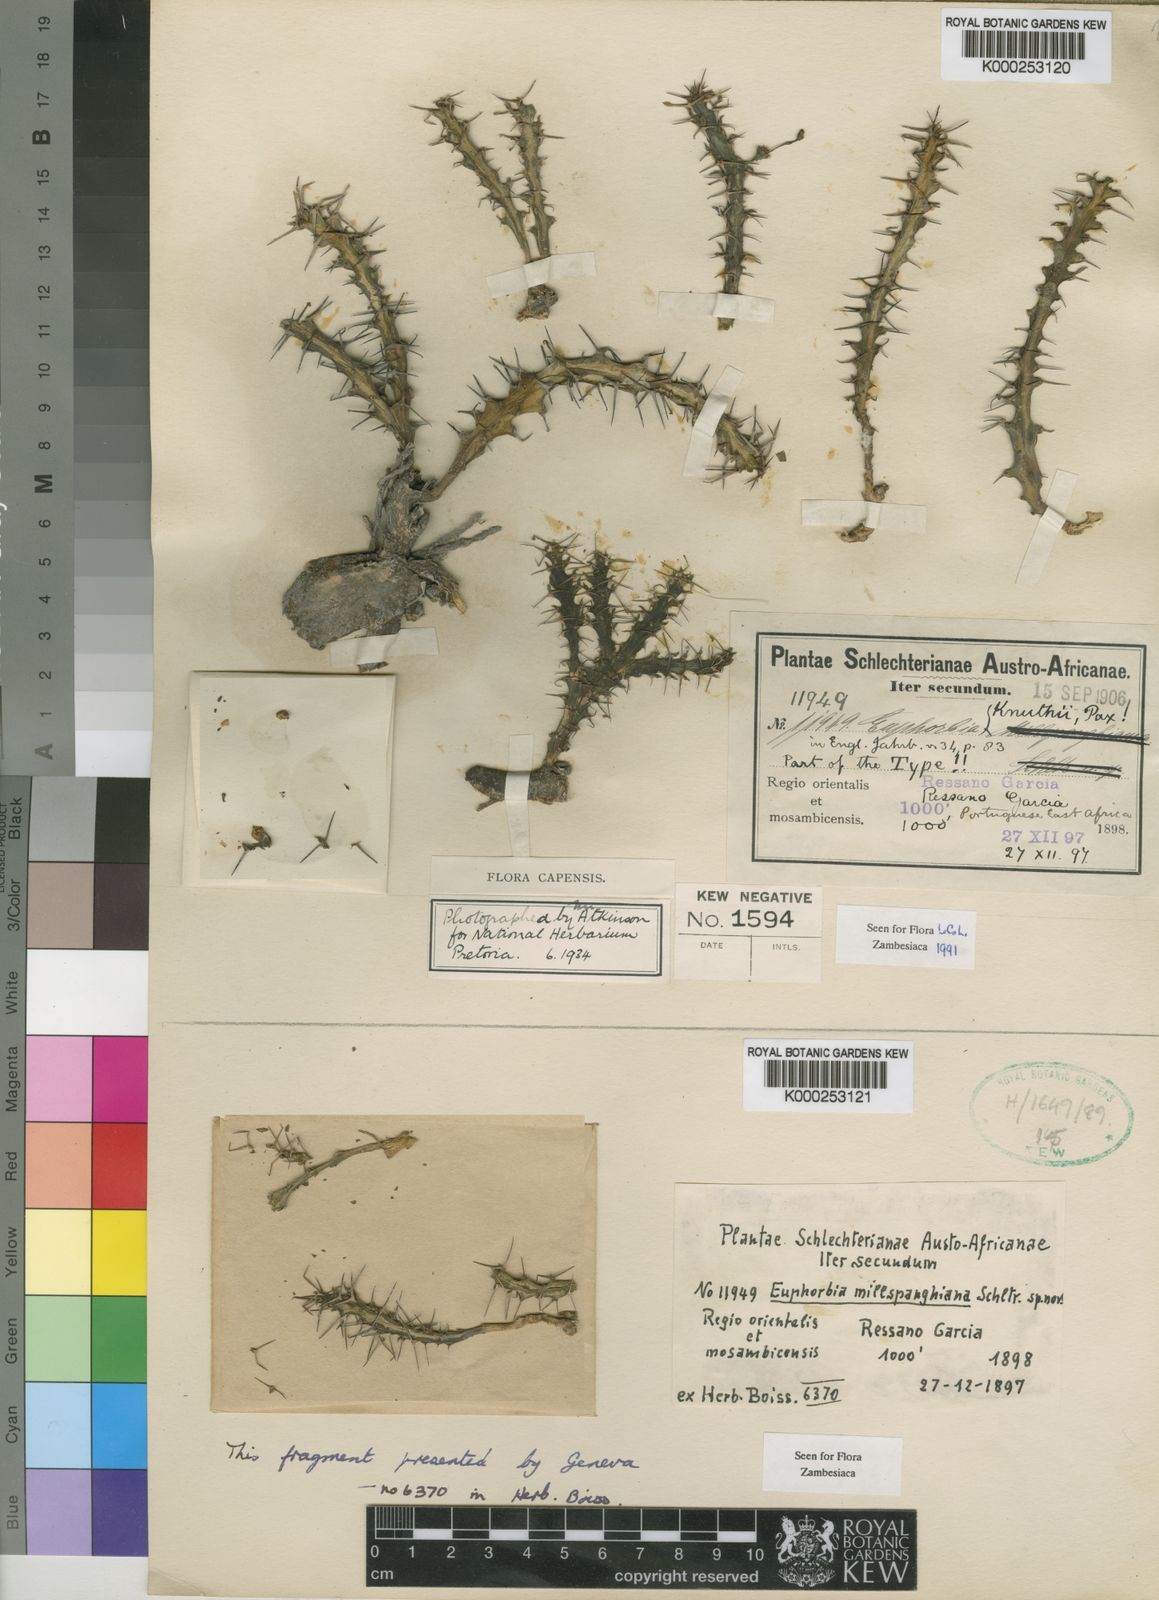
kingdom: Plantae
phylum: Tracheophyta
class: Magnoliopsida
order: Malpighiales
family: Euphorbiaceae
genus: Euphorbia
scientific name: Euphorbia knuthii
